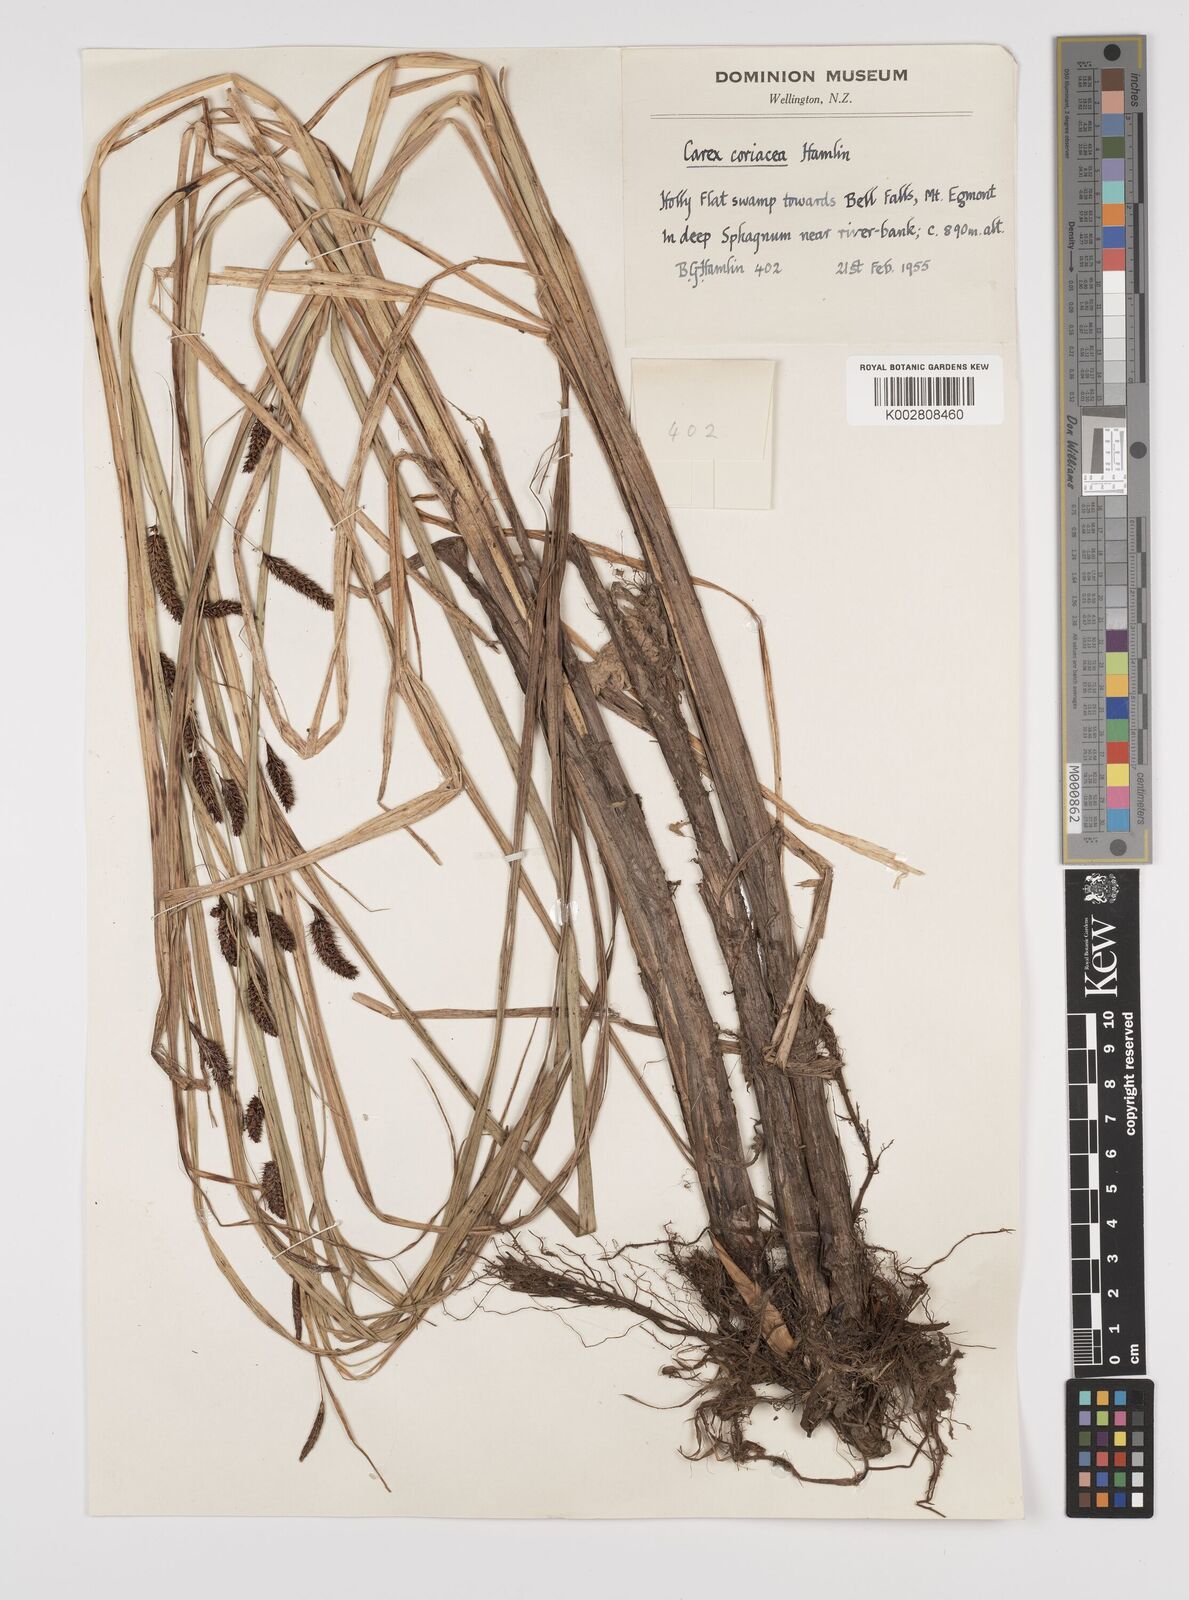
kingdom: Plantae
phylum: Tracheophyta
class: Liliopsida
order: Poales
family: Cyperaceae
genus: Carex
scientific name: Carex coriacea
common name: Rautahi
